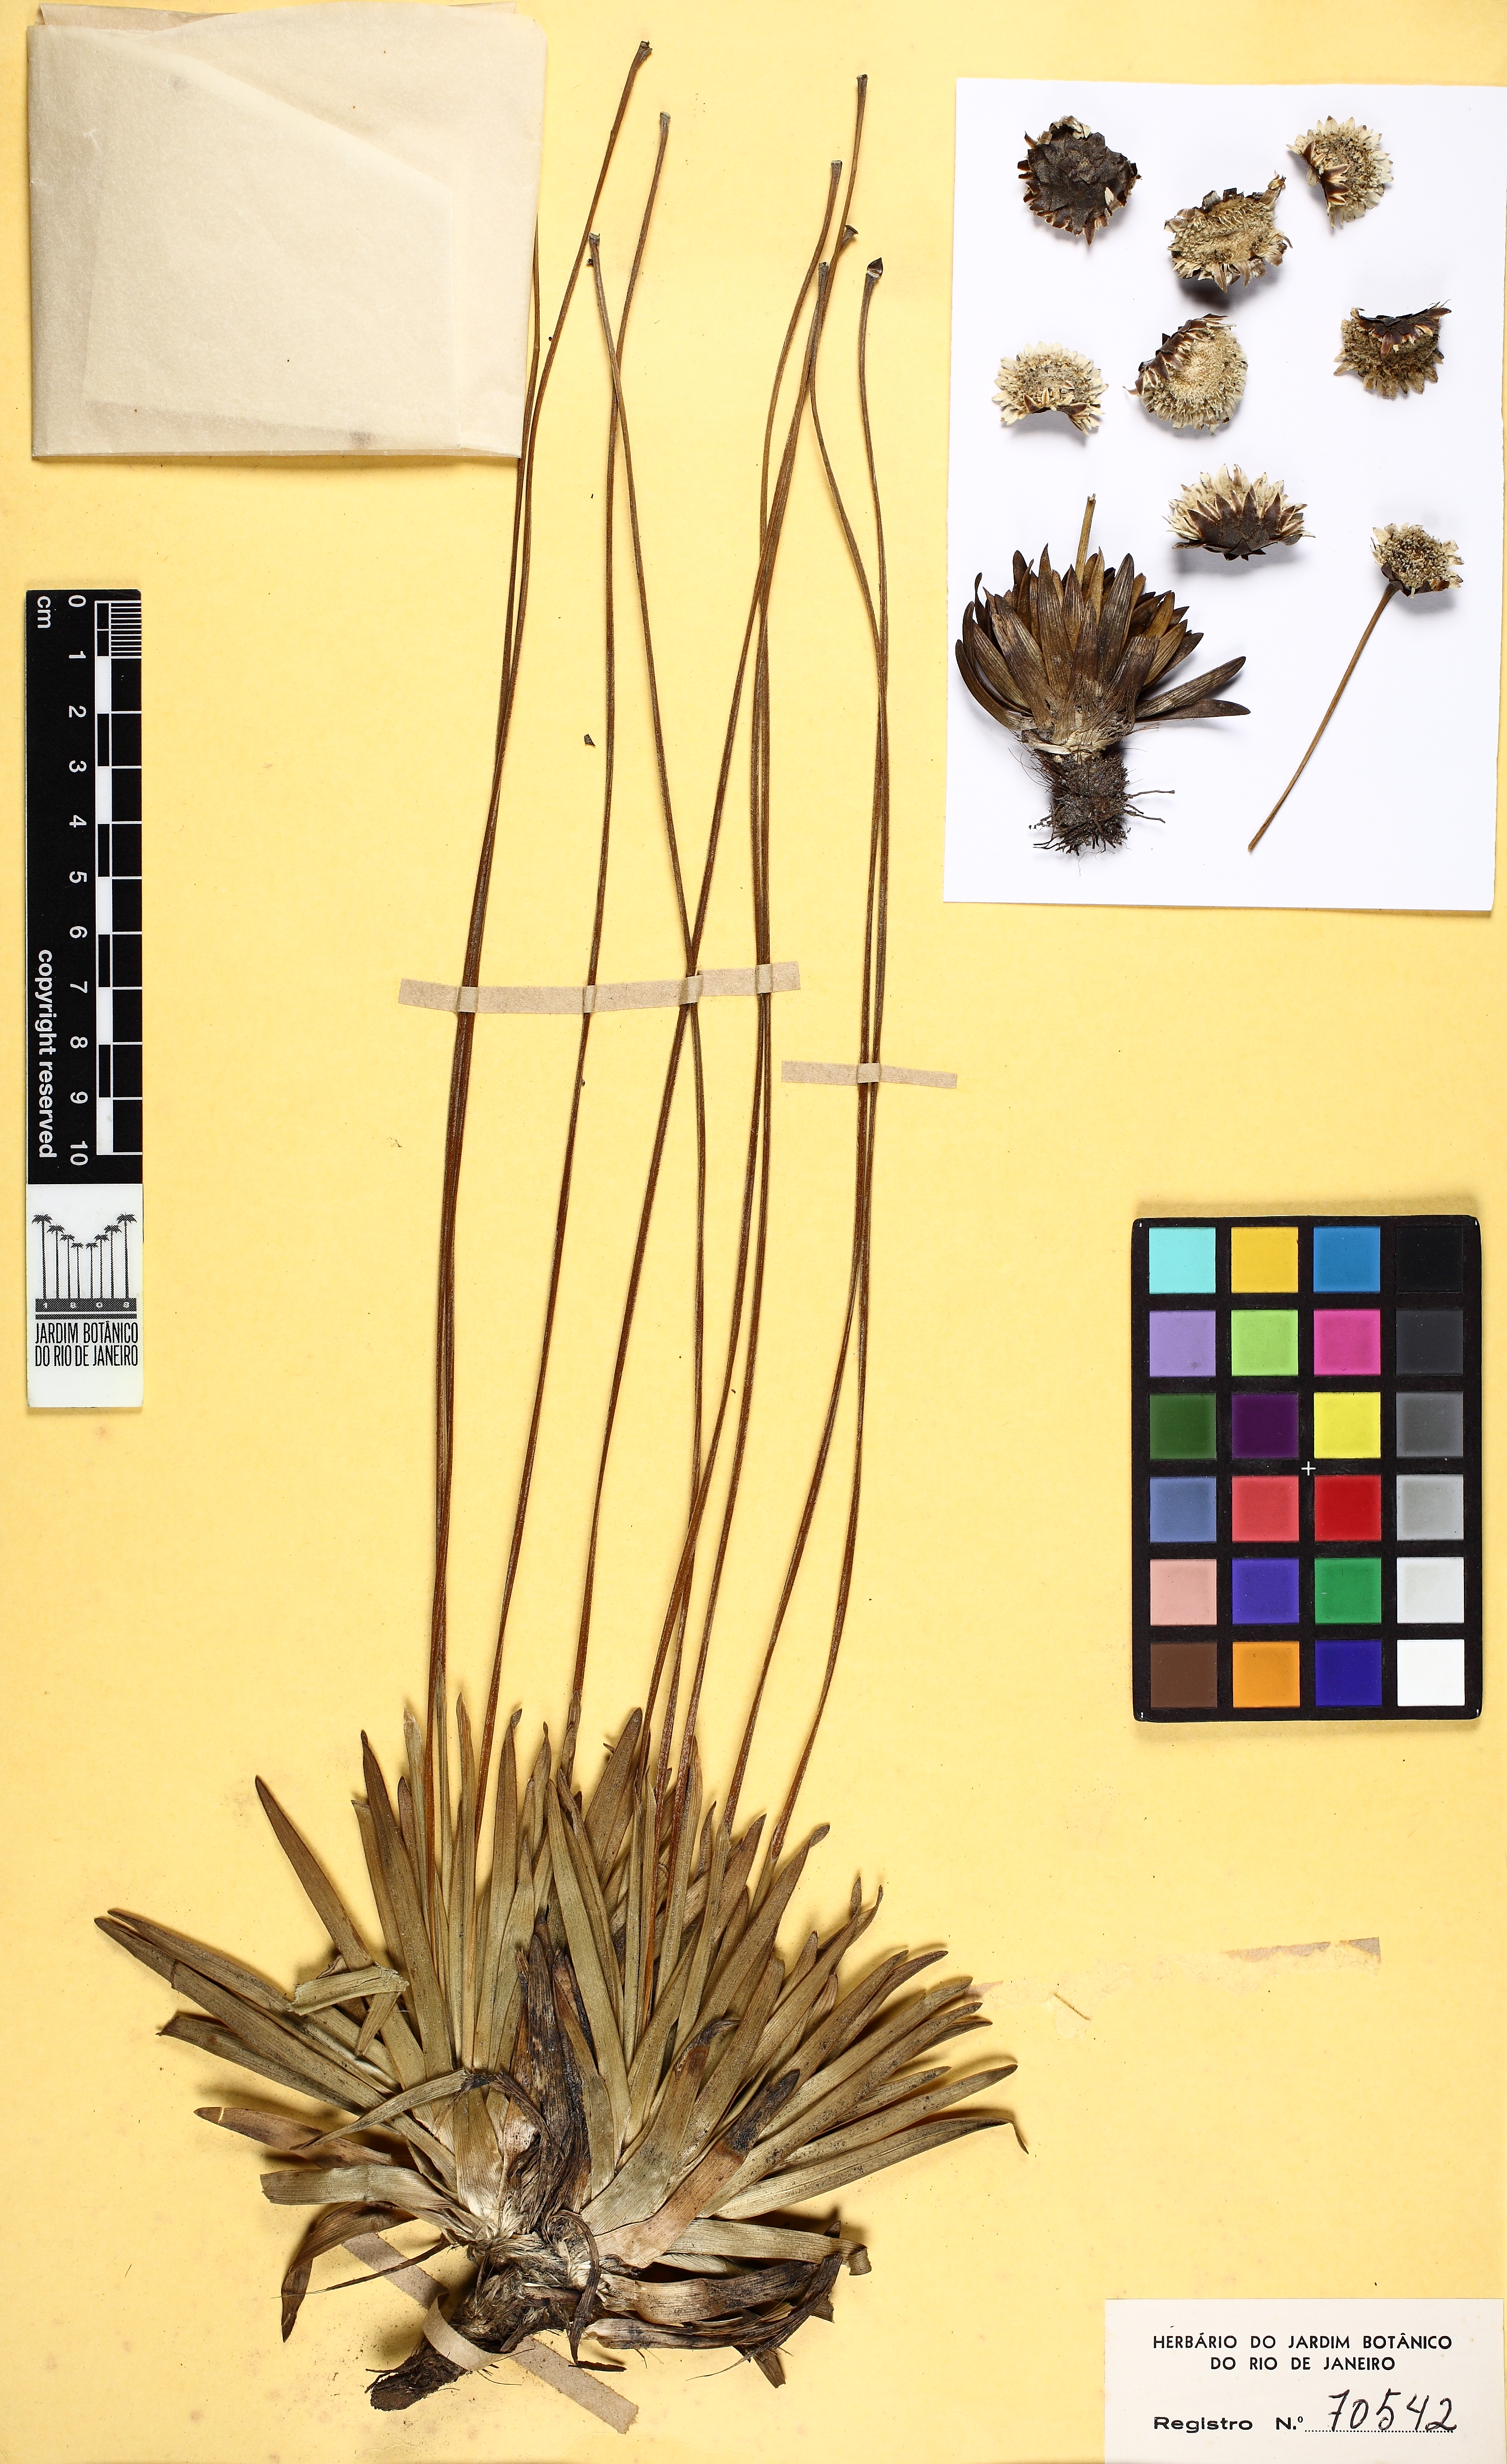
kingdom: Plantae
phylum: Tracheophyta
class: Liliopsida
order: Poales
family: Eriocaulaceae
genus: Paepalanthus
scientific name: Paepalanthus parviflorus
